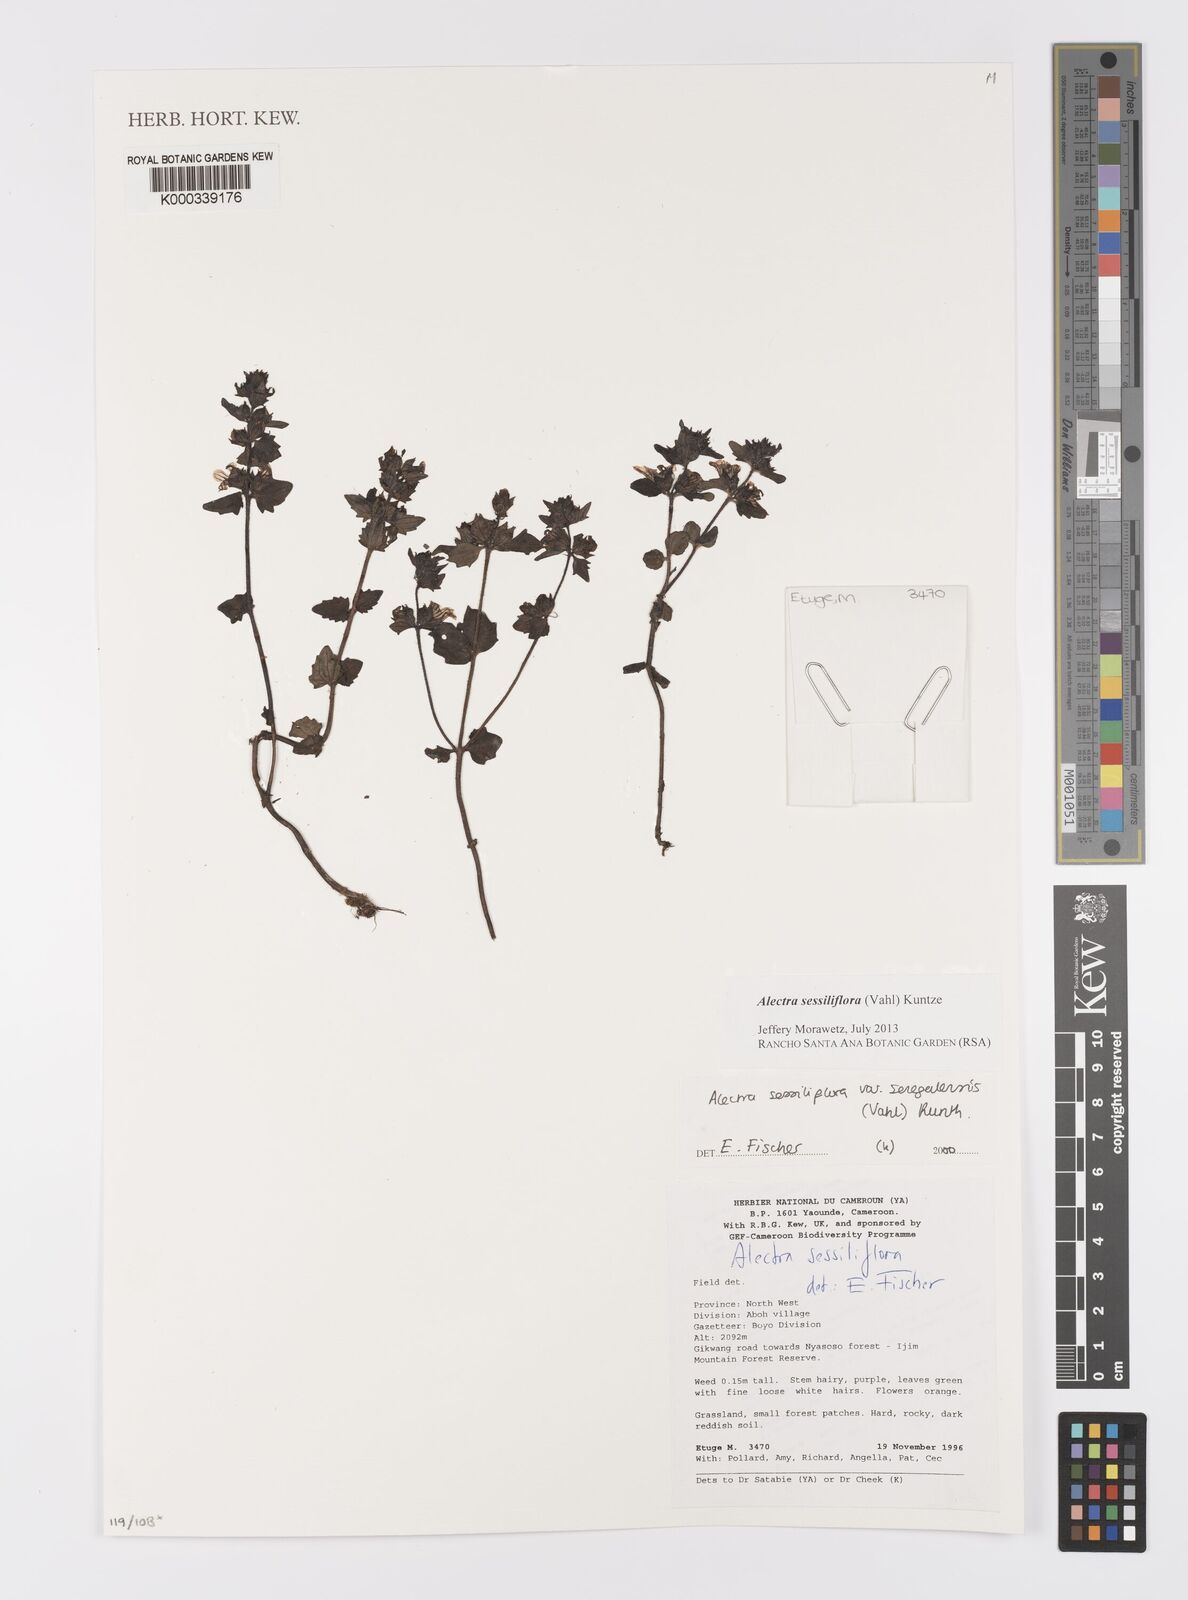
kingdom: Plantae
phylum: Tracheophyta
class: Magnoliopsida
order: Lamiales
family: Orobanchaceae
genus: Alectra
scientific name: Alectra sessiliflora
